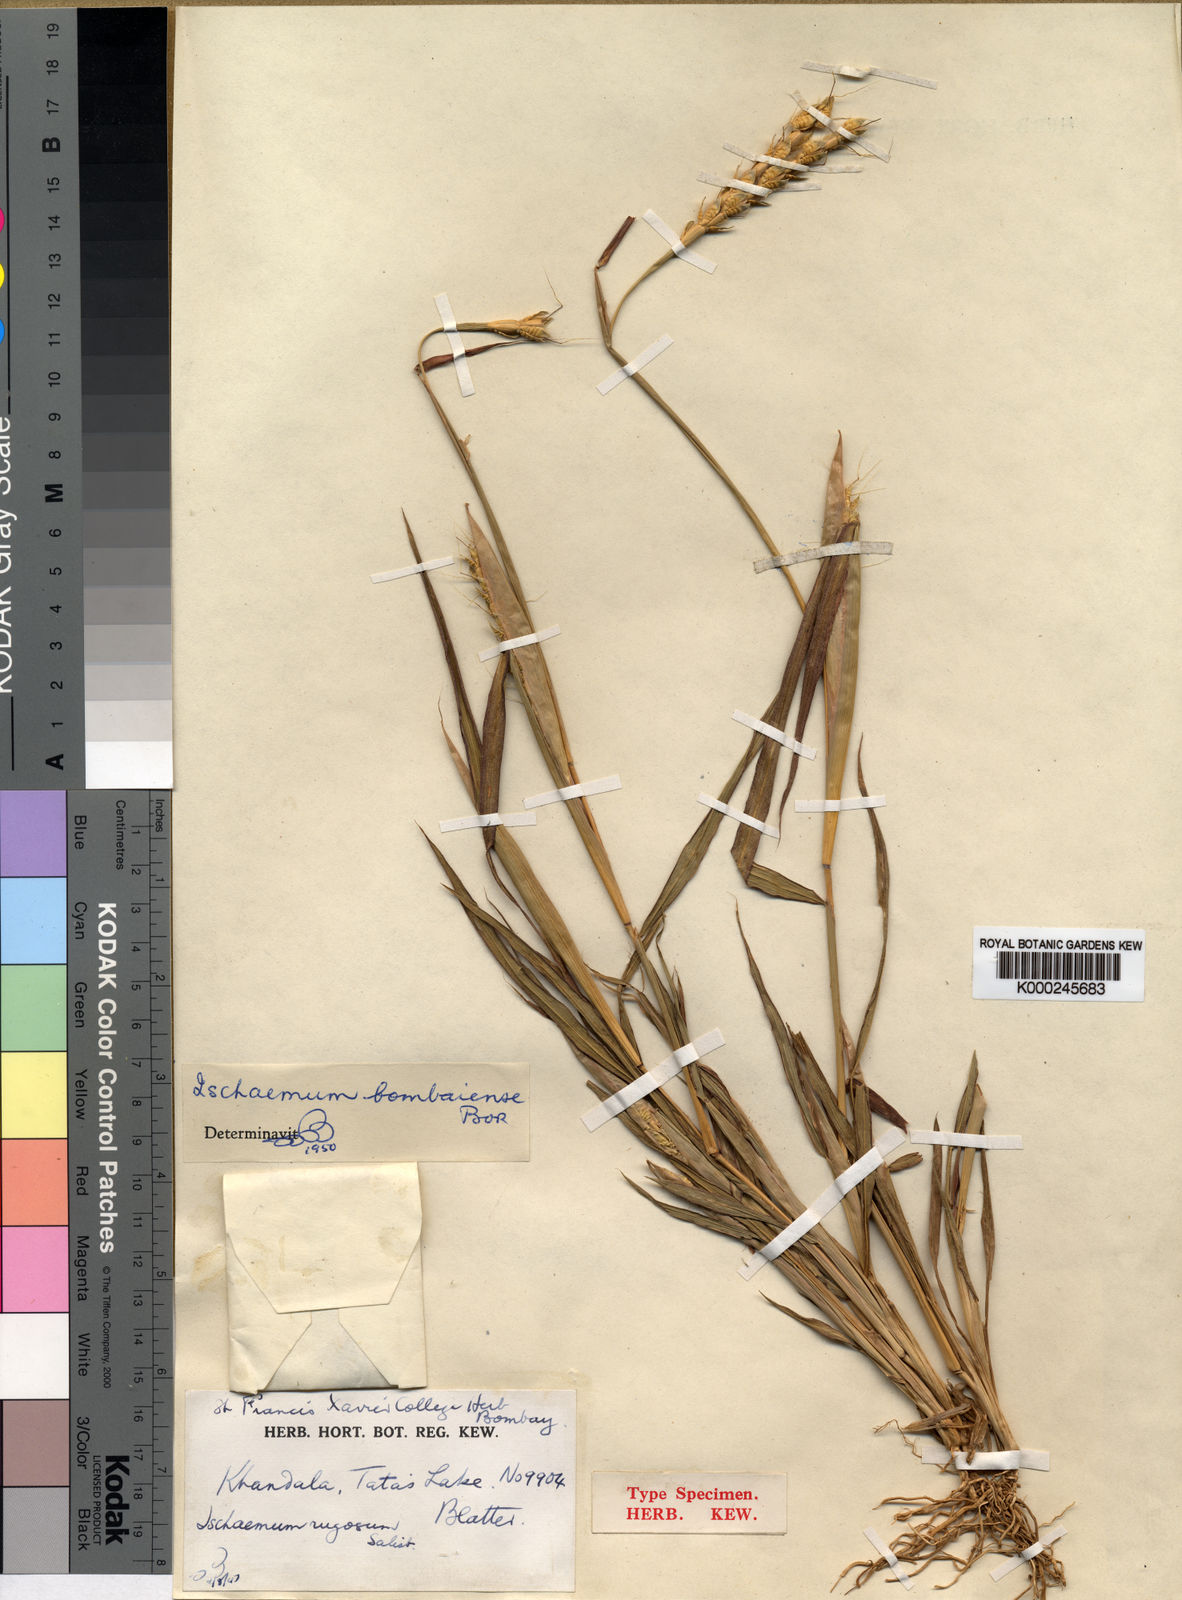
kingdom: Plantae
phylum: Tracheophyta
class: Liliopsida
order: Poales
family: Poaceae
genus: Ischaemum
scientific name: Ischaemum bombaiense
